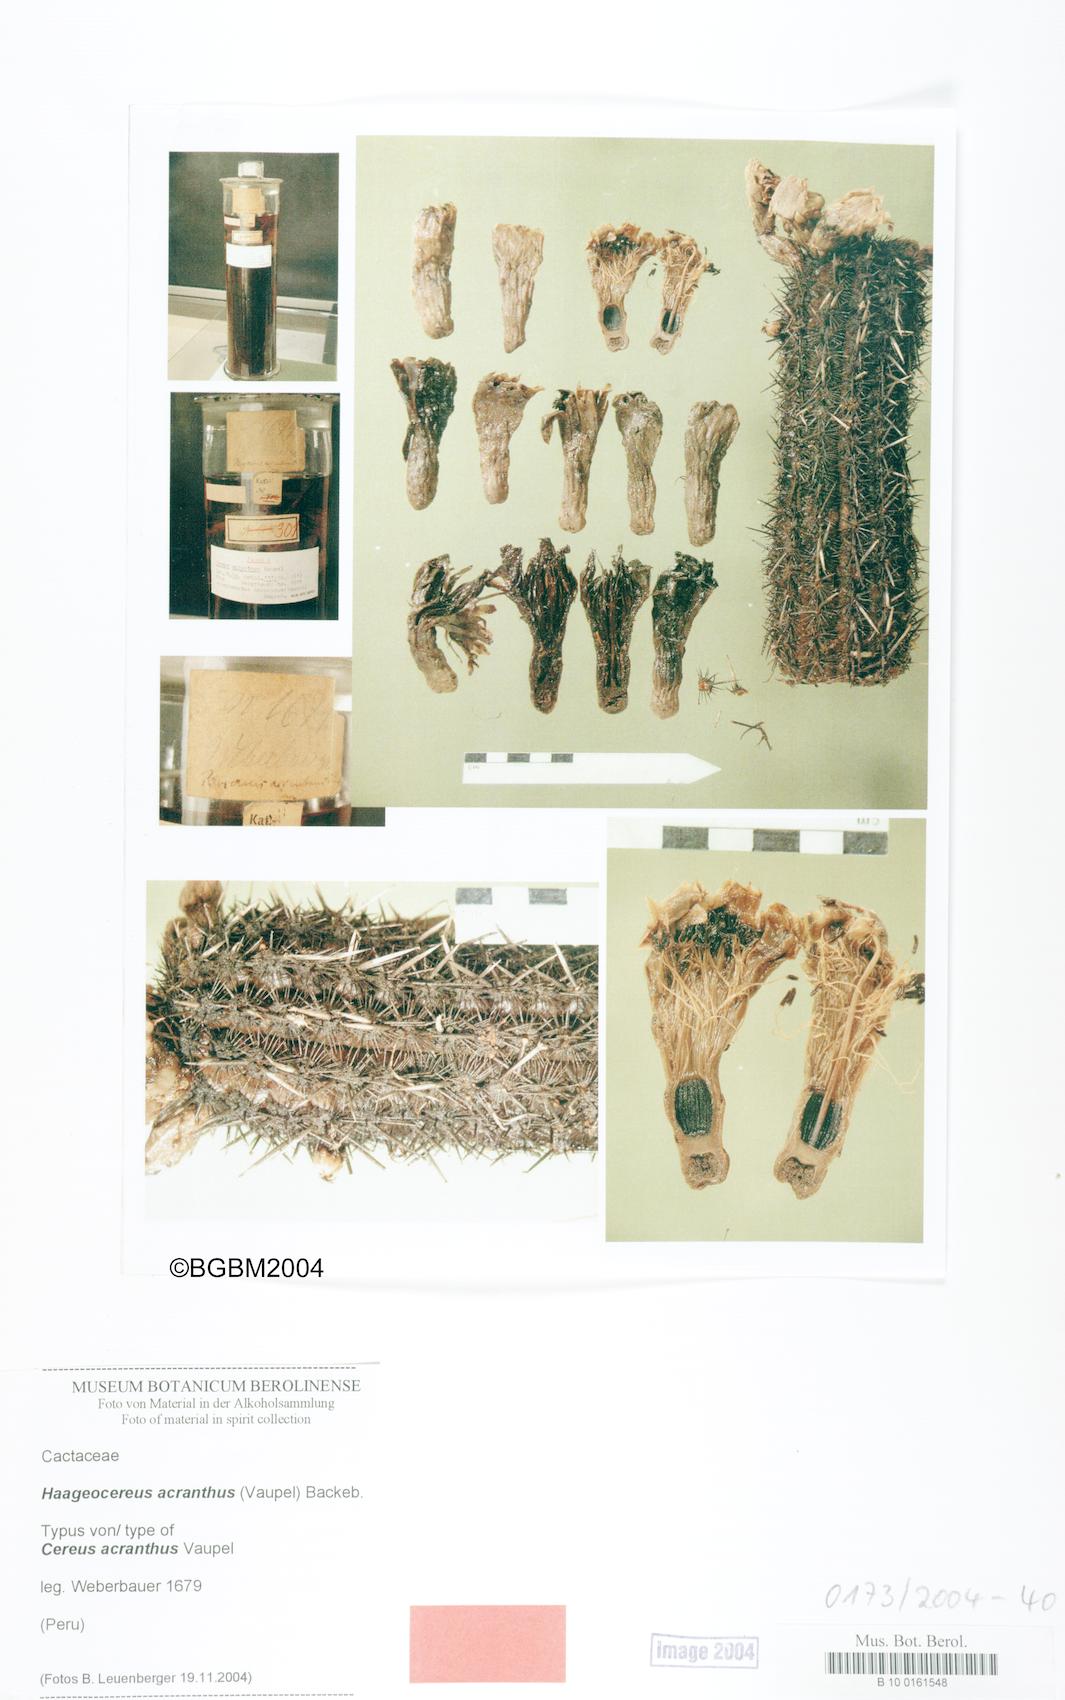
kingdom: Plantae
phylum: Tracheophyta
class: Magnoliopsida
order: Caryophyllales
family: Cactaceae
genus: Haageocereus
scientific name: Haageocereus acranthus
